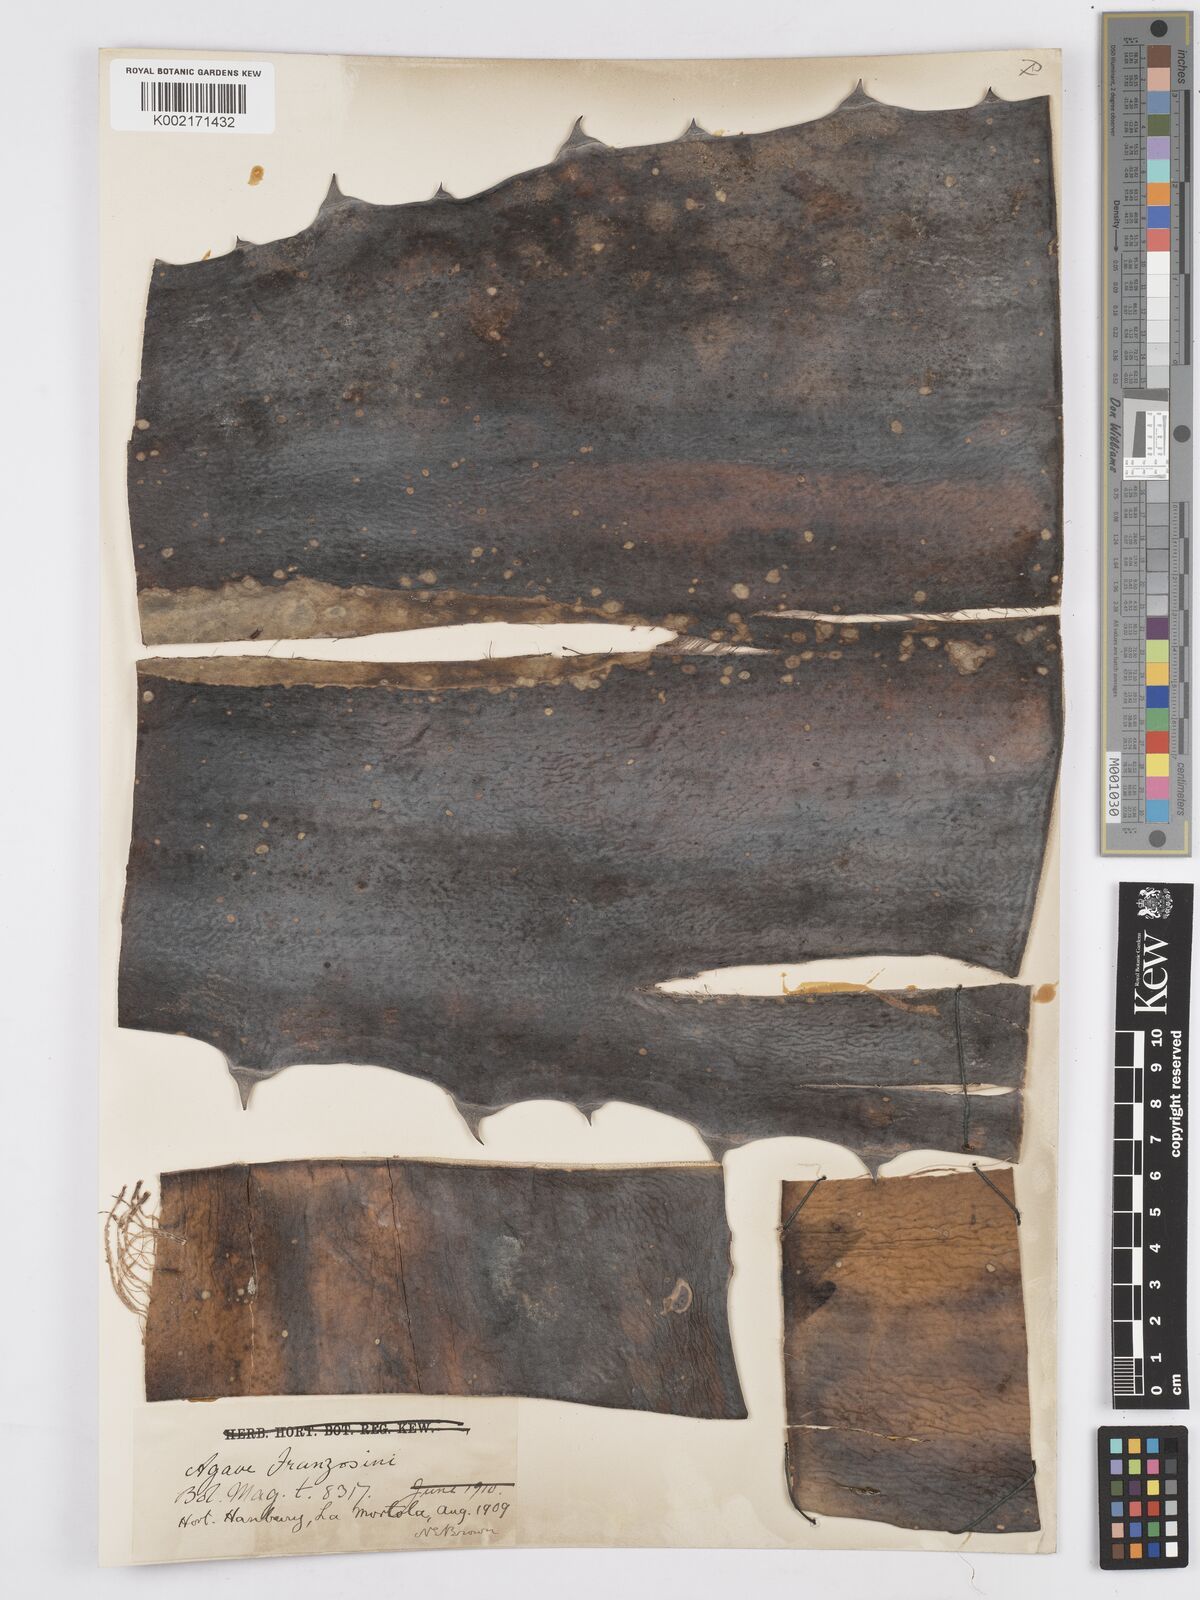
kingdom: Plantae
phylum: Tracheophyta
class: Liliopsida
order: Asparagales
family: Asparagaceae
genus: Agave
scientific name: Agave americana
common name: Centuryplant
